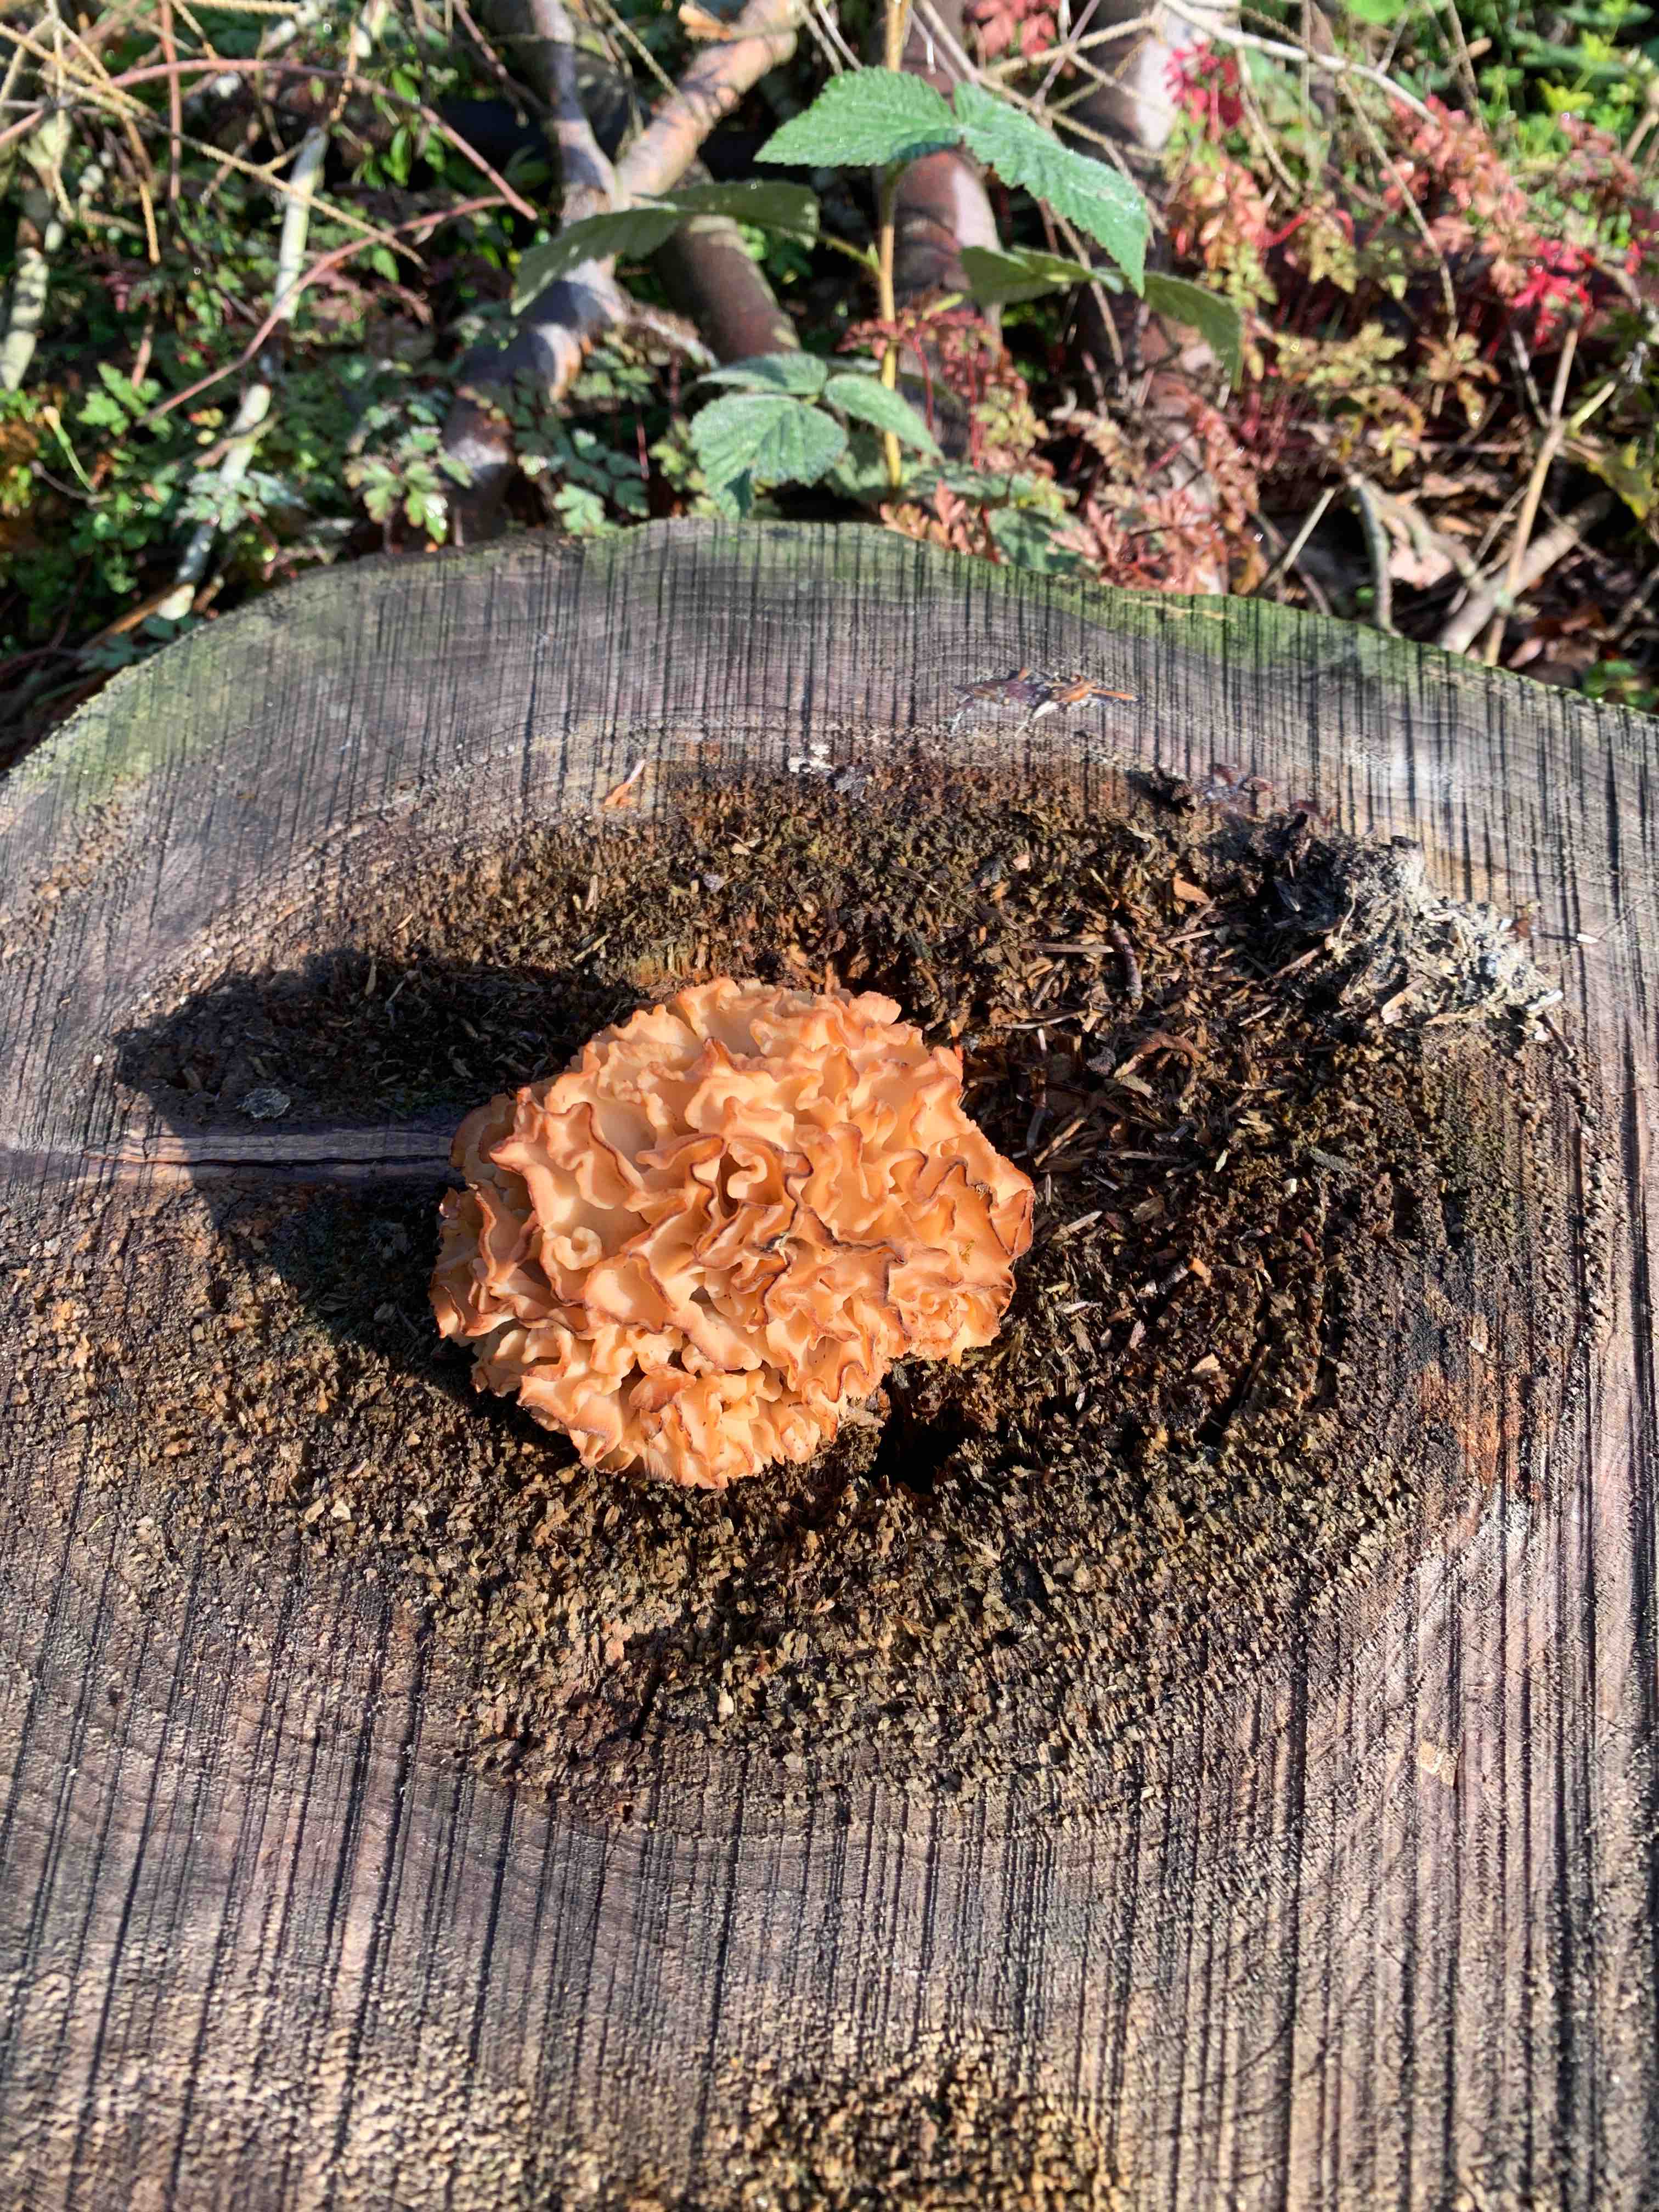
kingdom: Fungi
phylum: Basidiomycota
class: Agaricomycetes
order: Polyporales
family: Sparassidaceae
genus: Sparassis
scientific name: Sparassis crispa
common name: kruset blomkålssvamp
